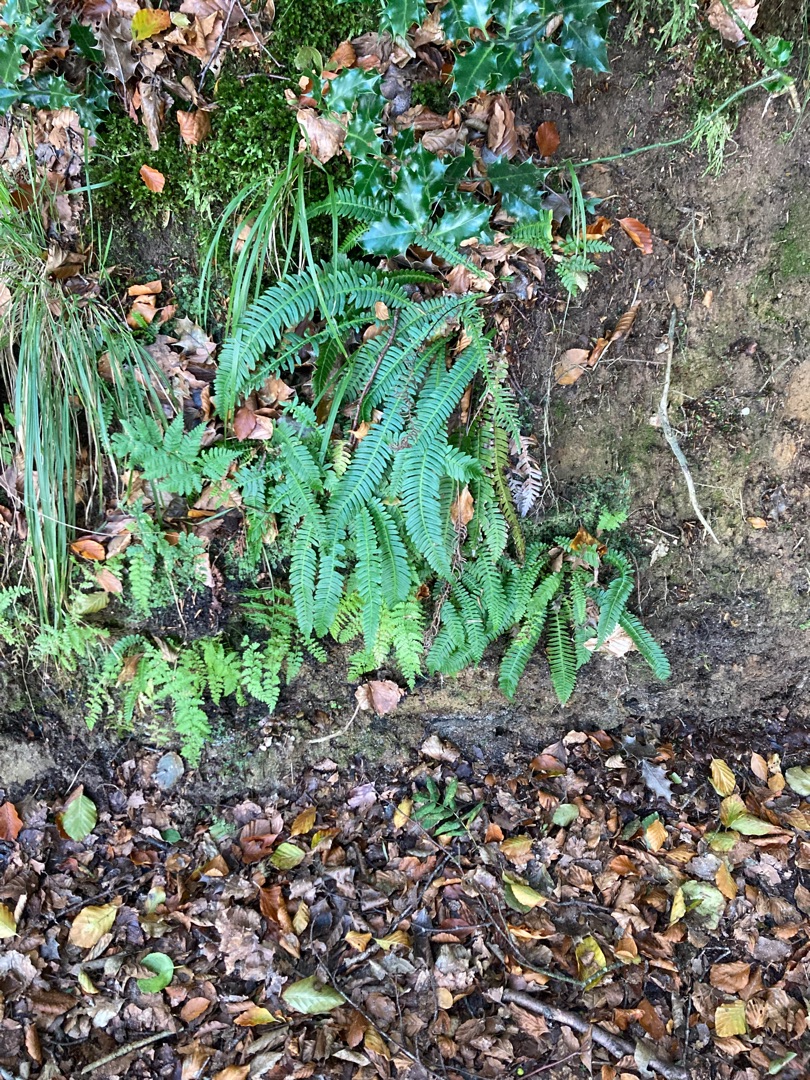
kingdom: Plantae
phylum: Tracheophyta
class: Polypodiopsida
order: Polypodiales
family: Blechnaceae
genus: Struthiopteris
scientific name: Struthiopteris spicant
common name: Kambregne
